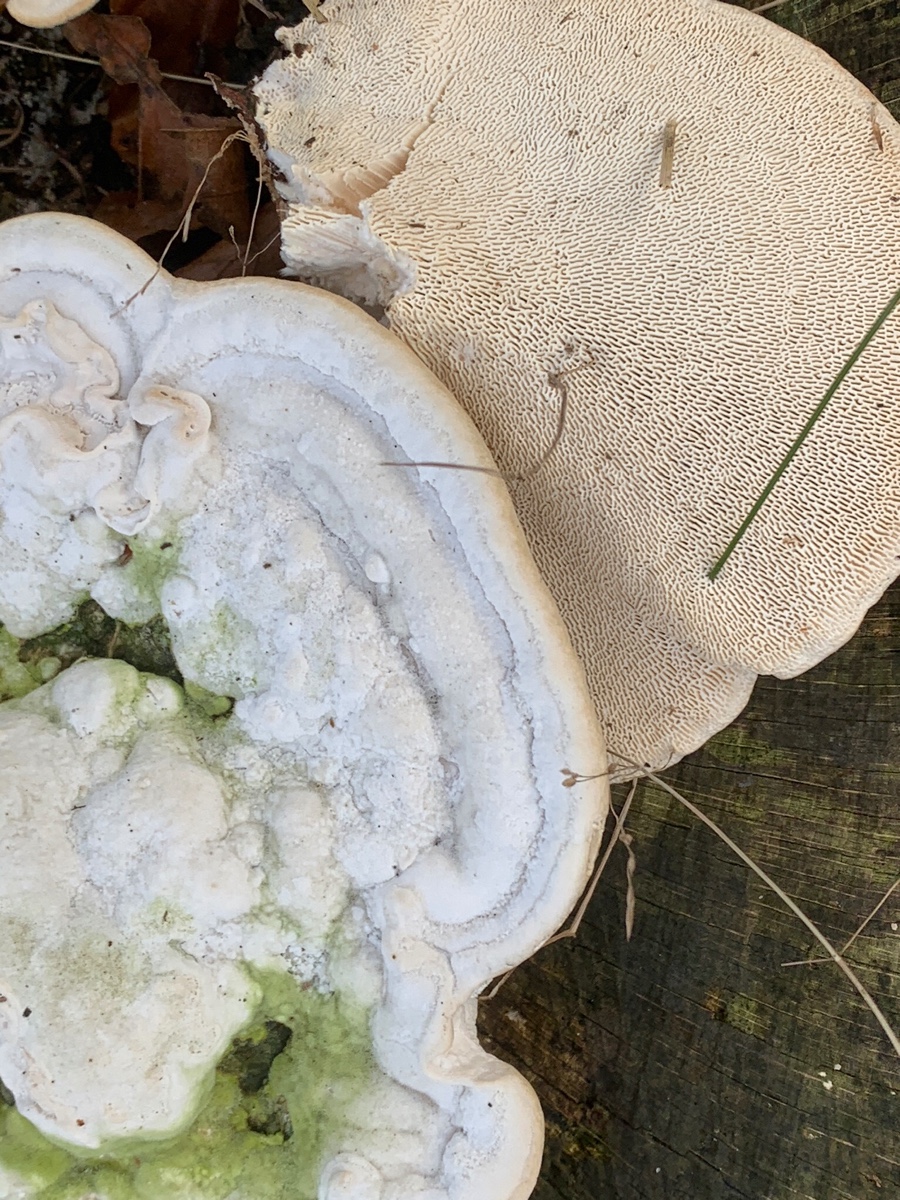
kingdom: Fungi
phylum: Basidiomycota
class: Agaricomycetes
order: Polyporales
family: Polyporaceae
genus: Trametes
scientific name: Trametes gibbosa
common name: puklet læderporesvamp
